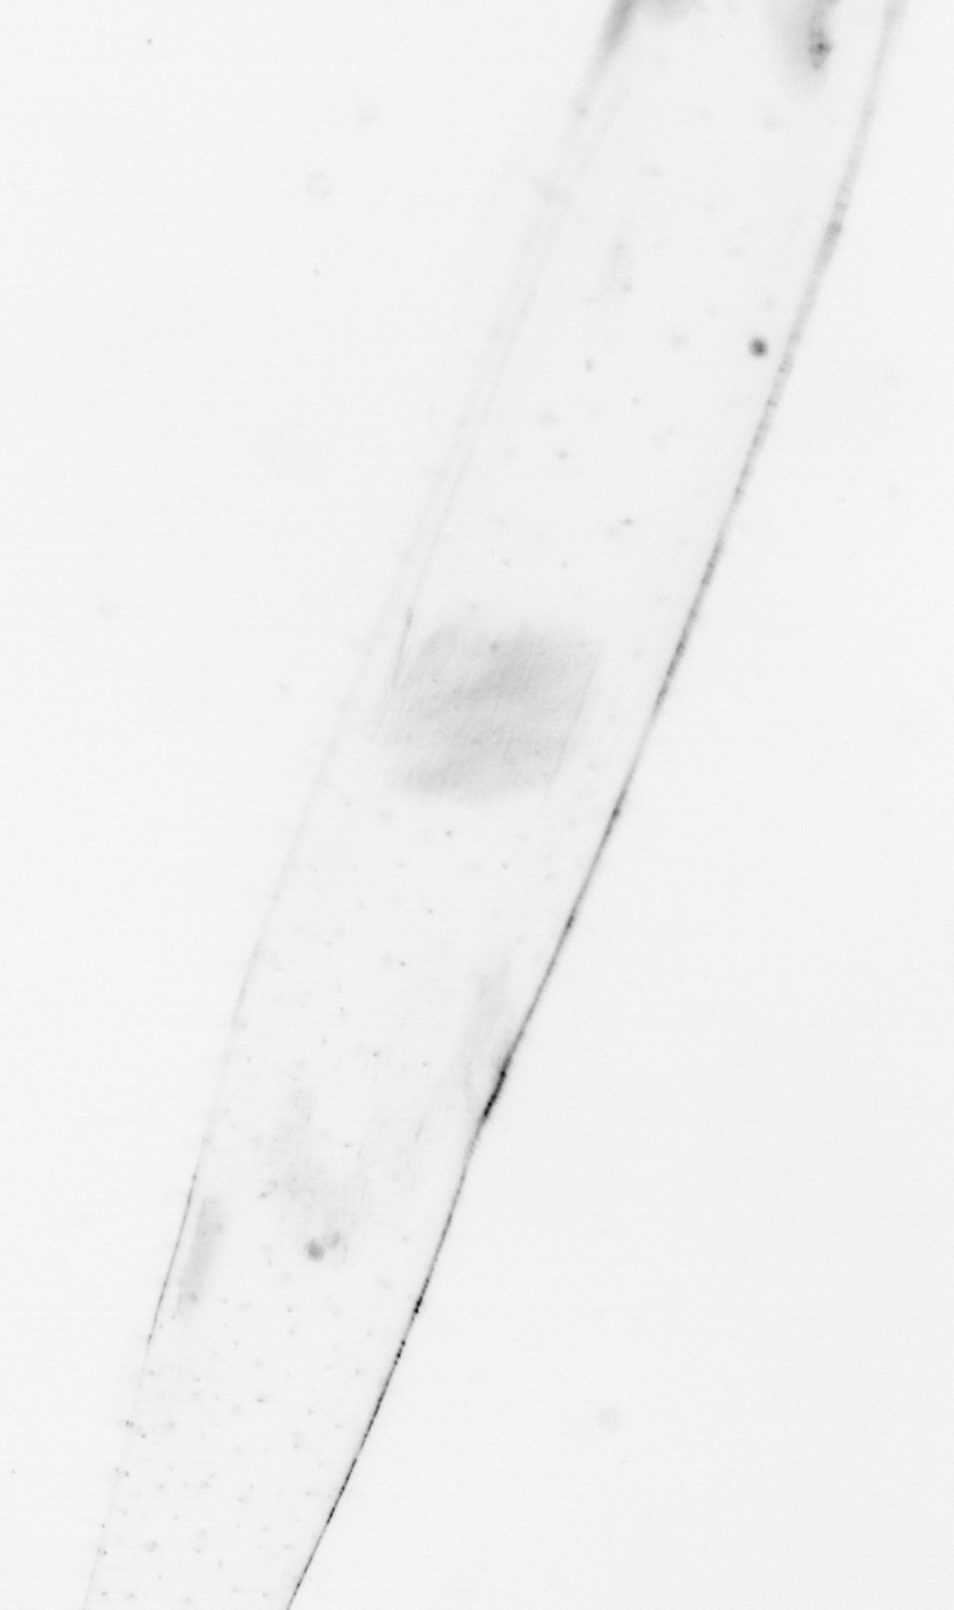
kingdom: Animalia
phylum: Chaetognatha
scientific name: Chaetognatha
